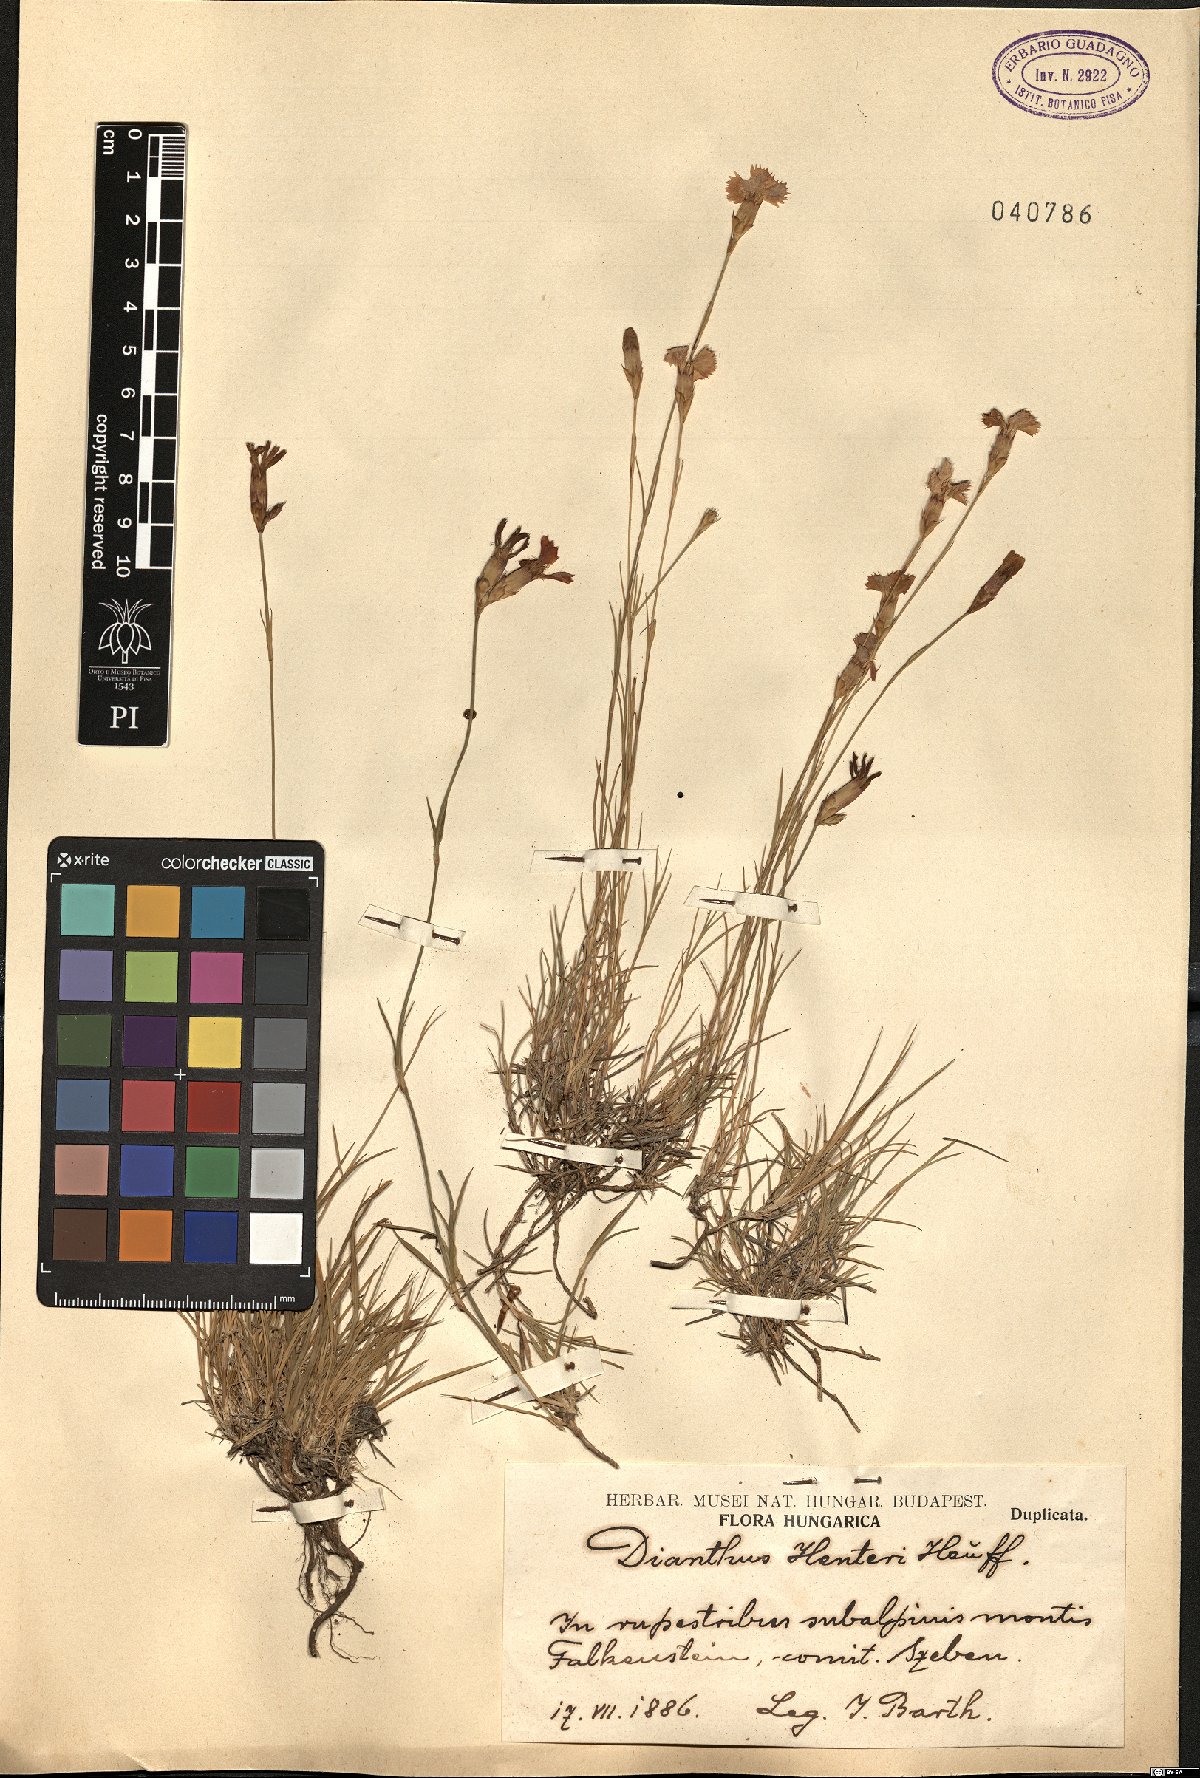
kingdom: Plantae
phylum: Tracheophyta
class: Magnoliopsida
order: Caryophyllales
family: Caryophyllaceae
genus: Dianthus
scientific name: Dianthus henteri
